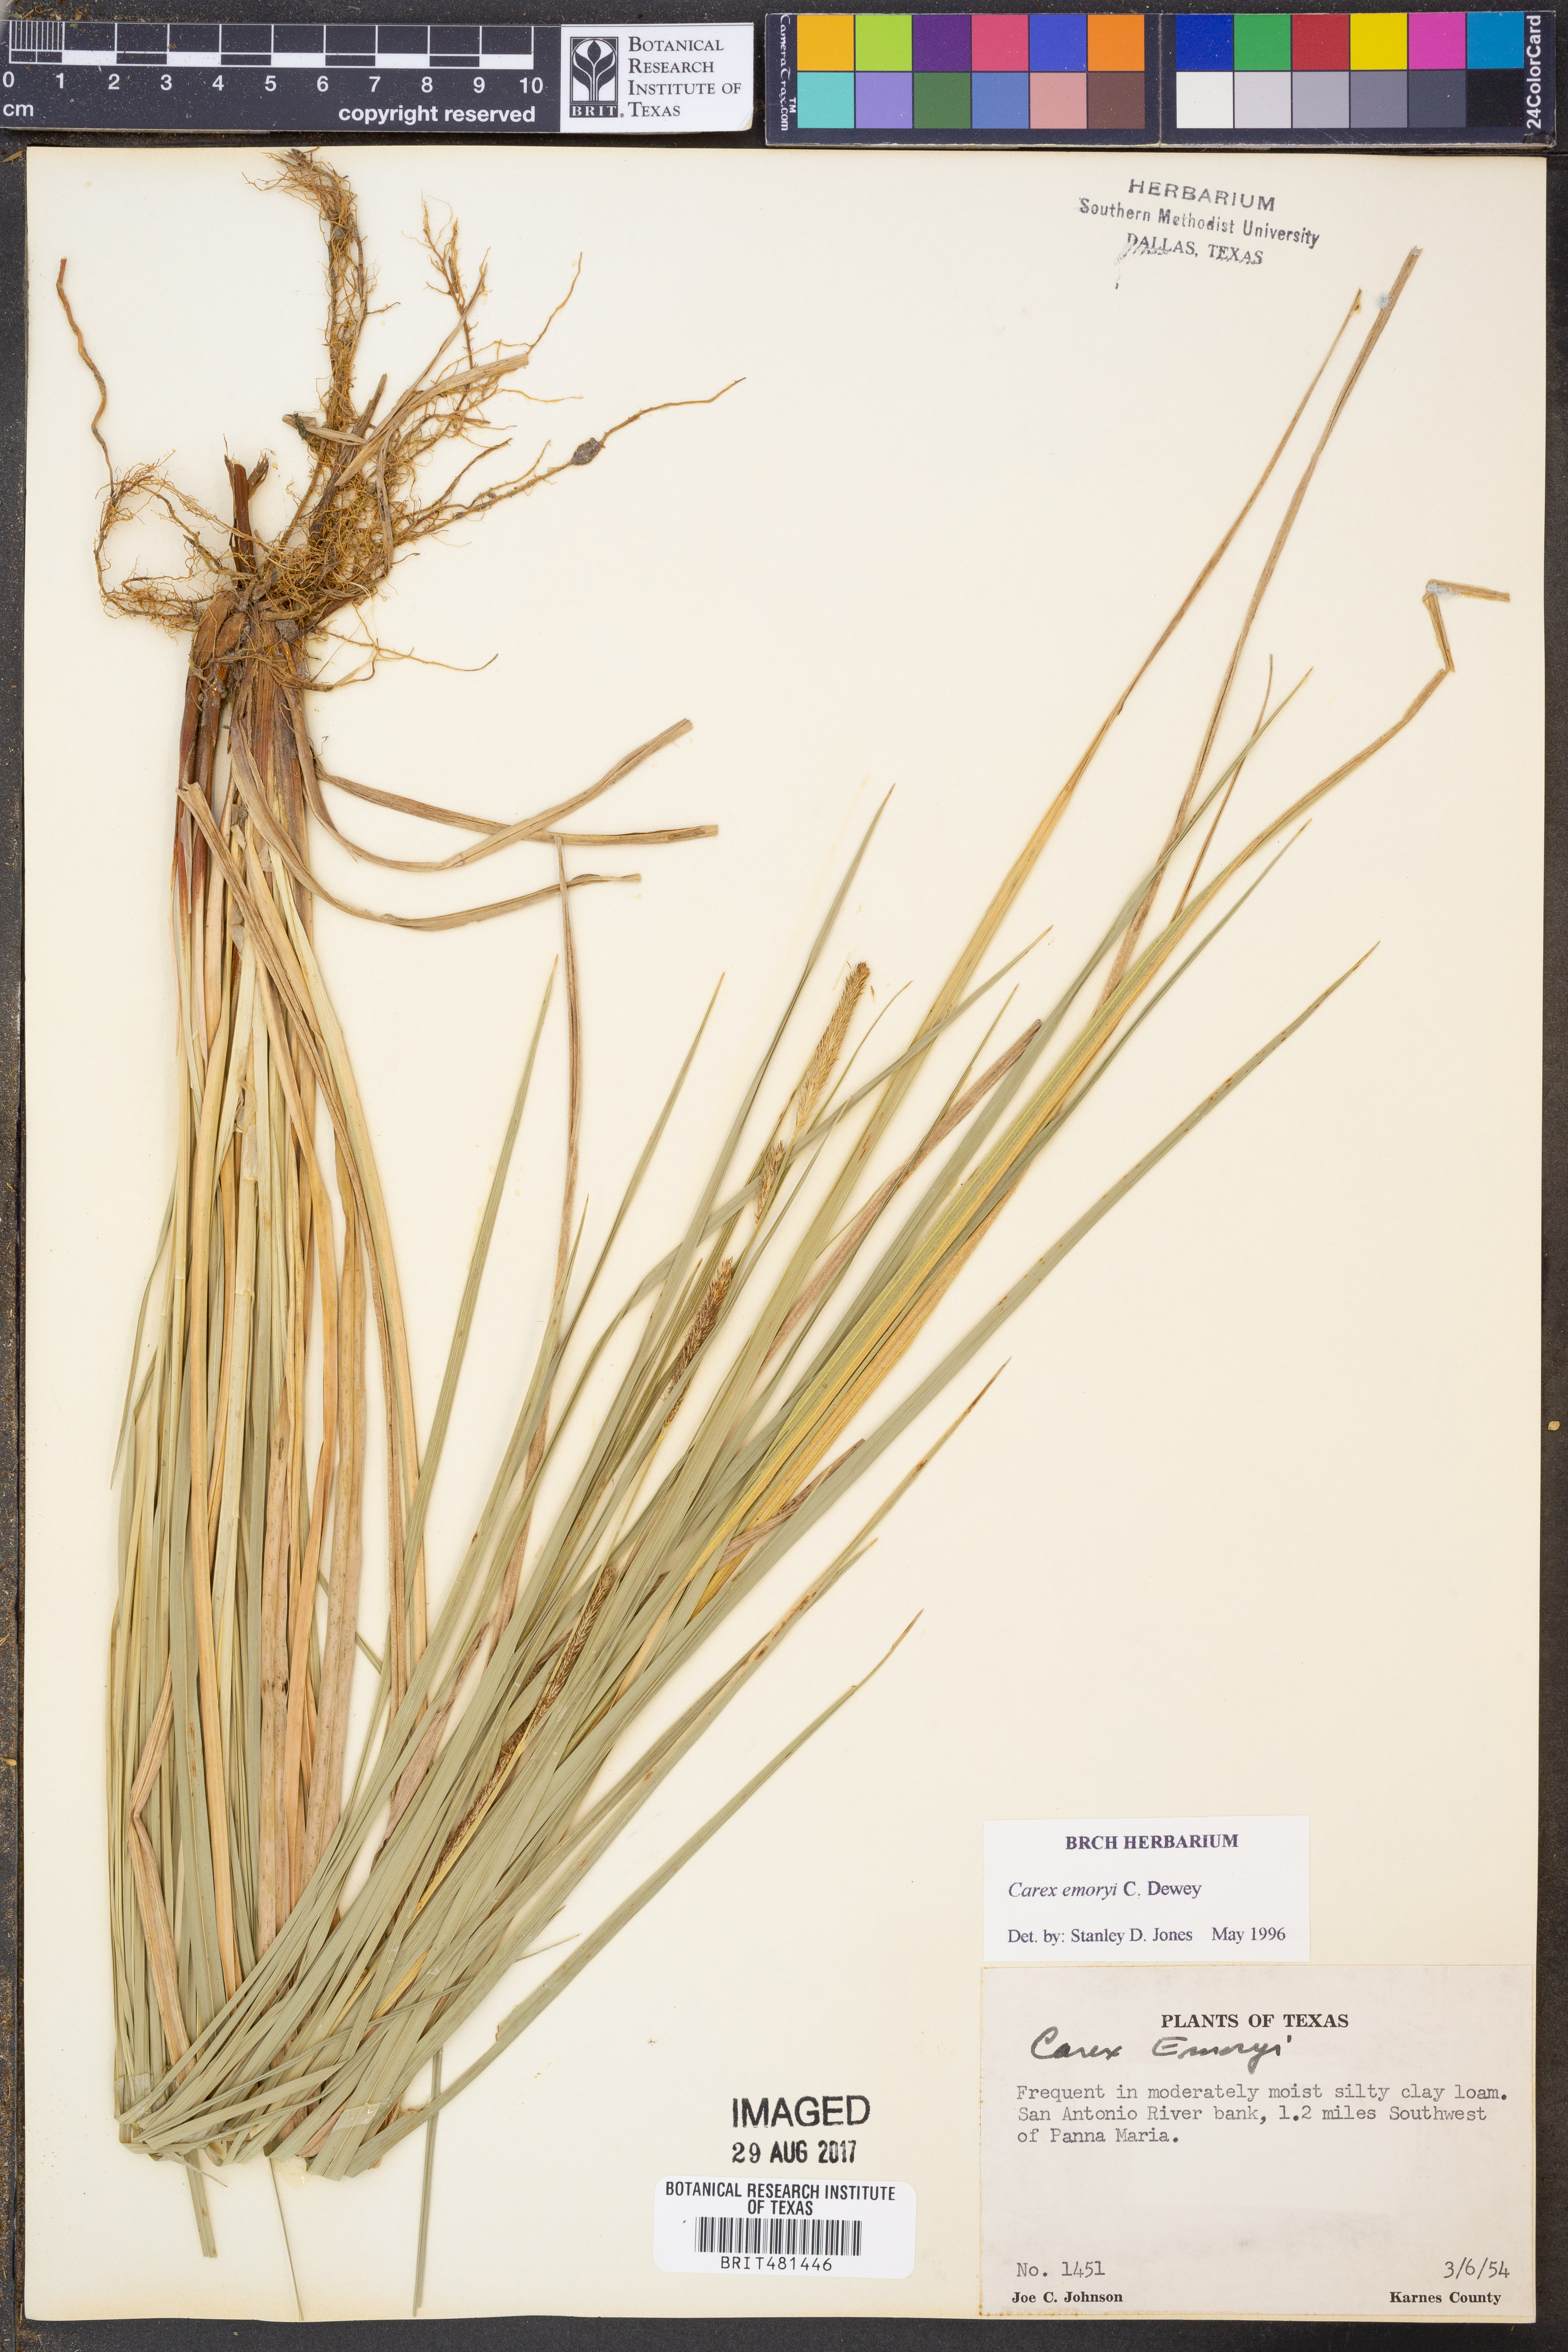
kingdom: Plantae
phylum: Tracheophyta
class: Liliopsida
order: Poales
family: Cyperaceae
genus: Carex
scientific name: Carex emoryi
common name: Emory's sedge
